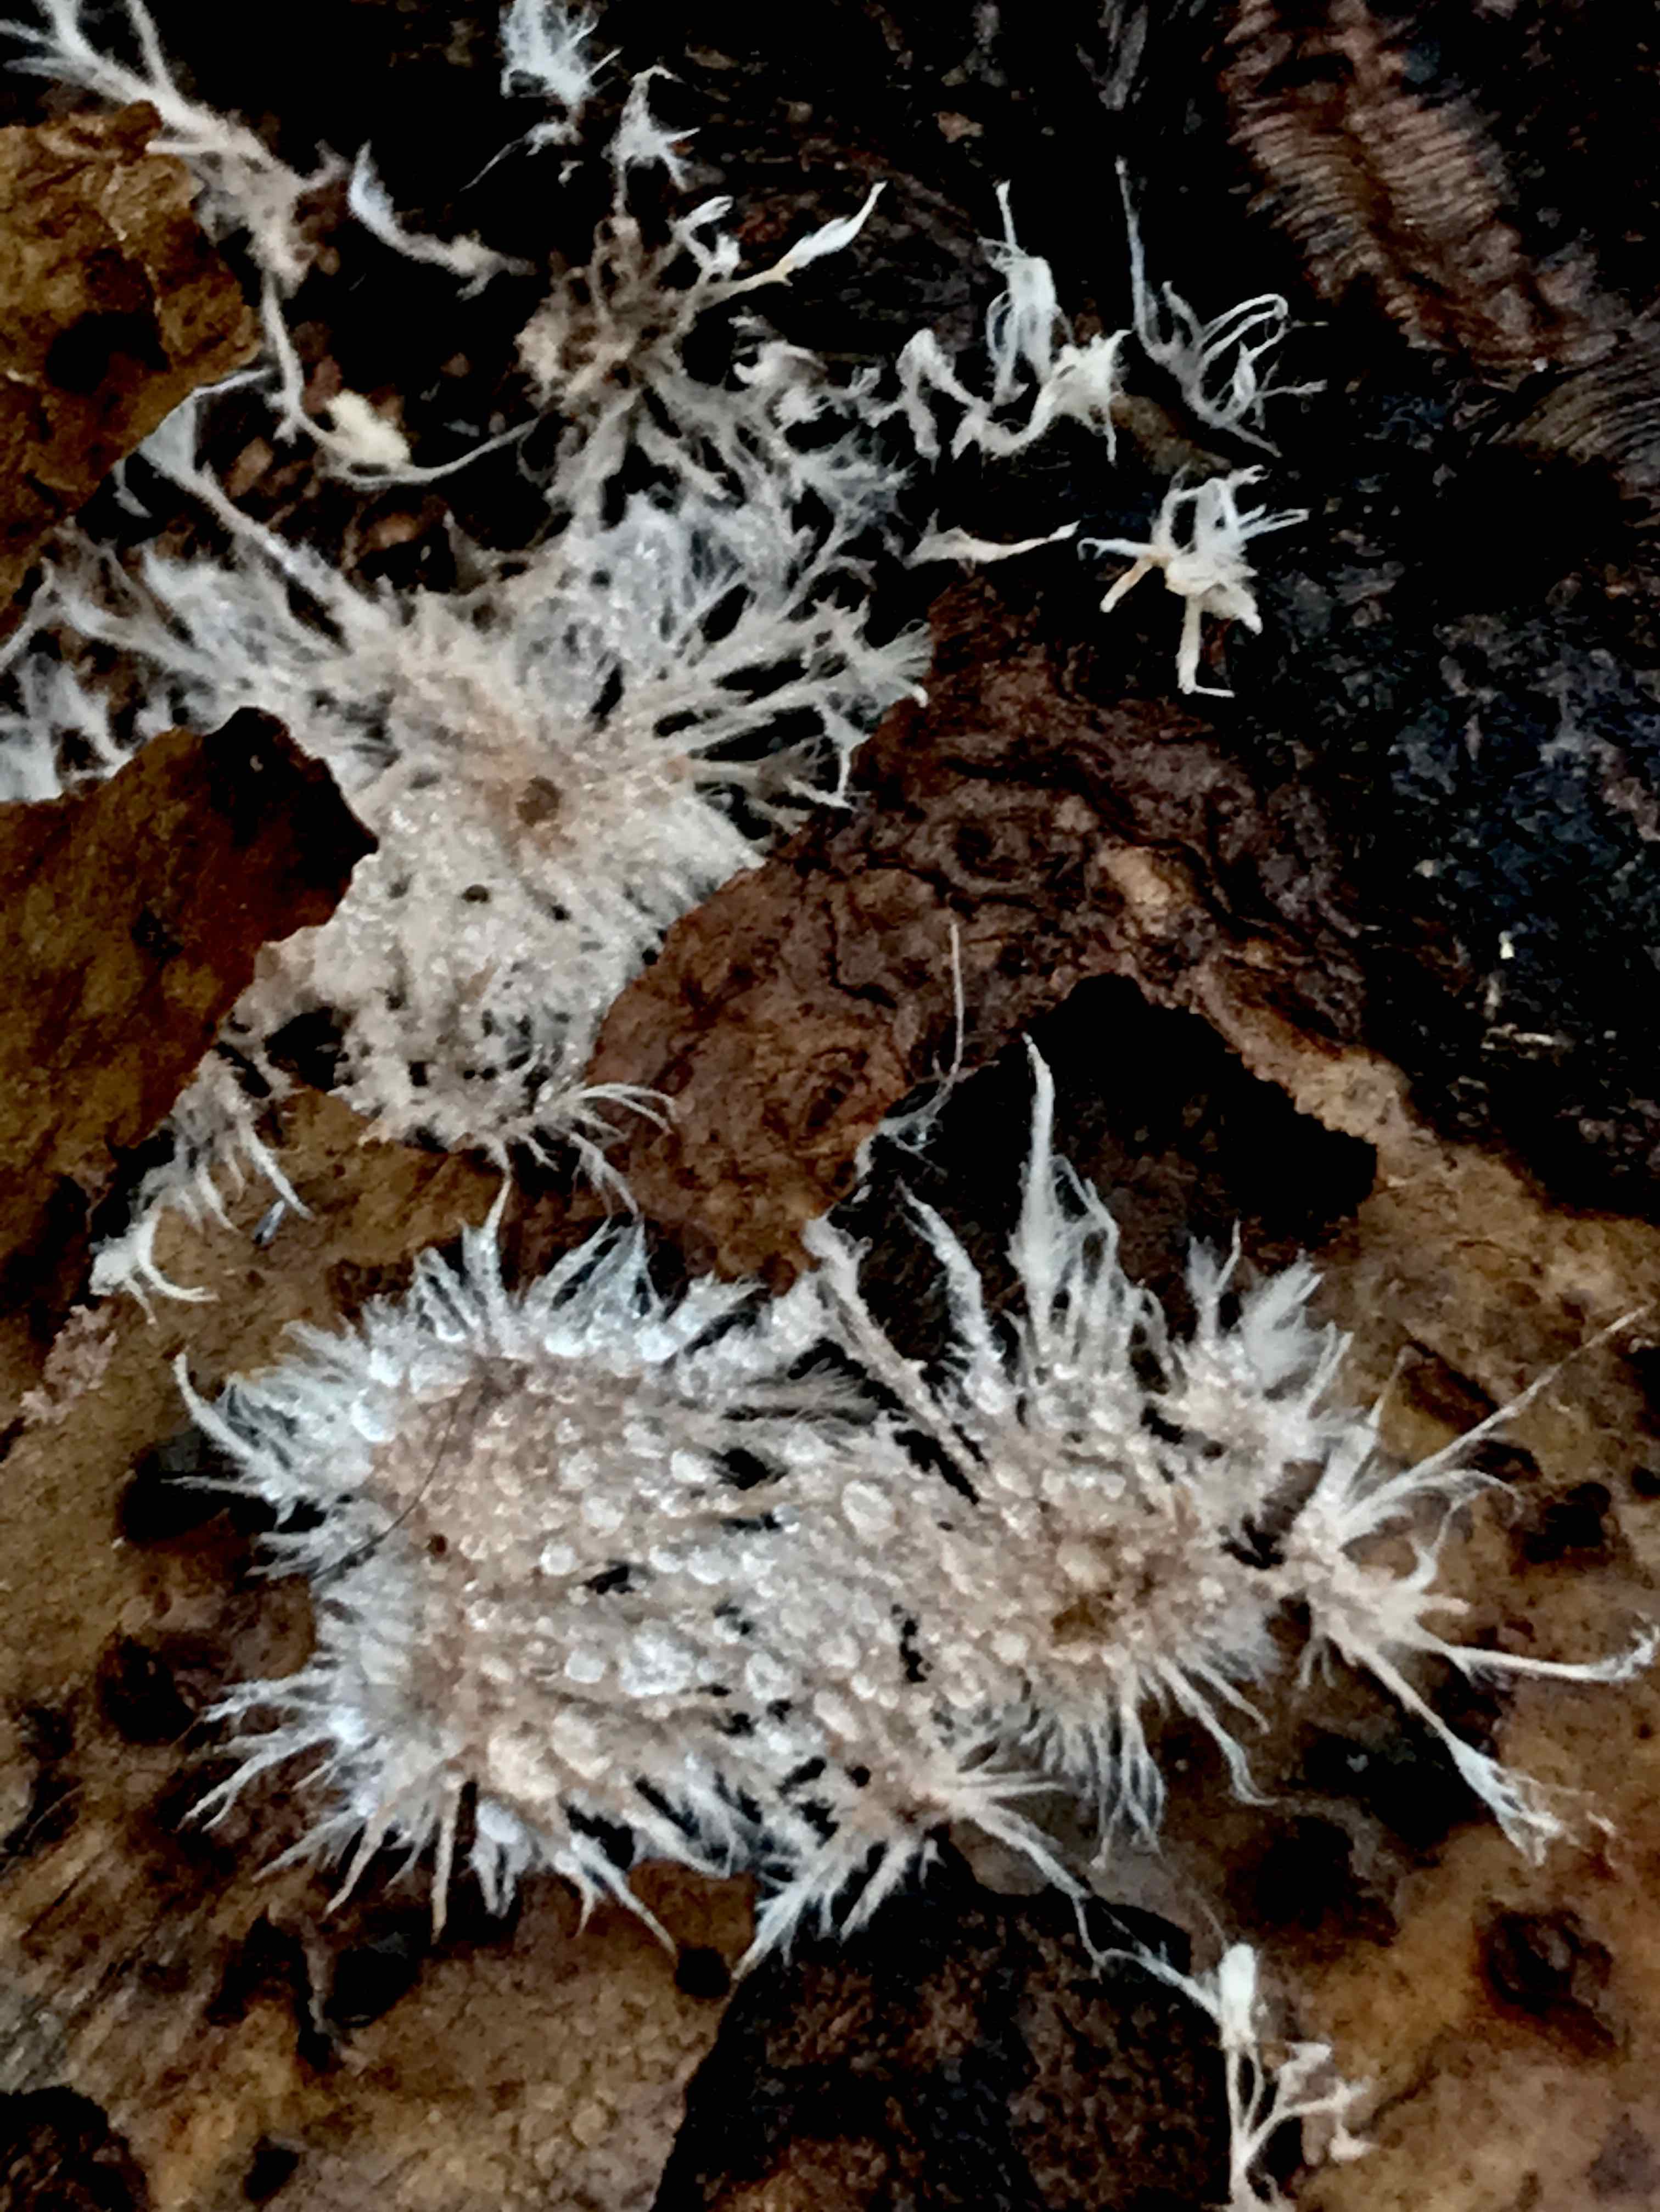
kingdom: Fungi
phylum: Basidiomycota
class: Agaricomycetes
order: Polyporales
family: Steccherinaceae
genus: Steccherinum
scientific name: Steccherinum fimbriatum
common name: trådet skønpig
